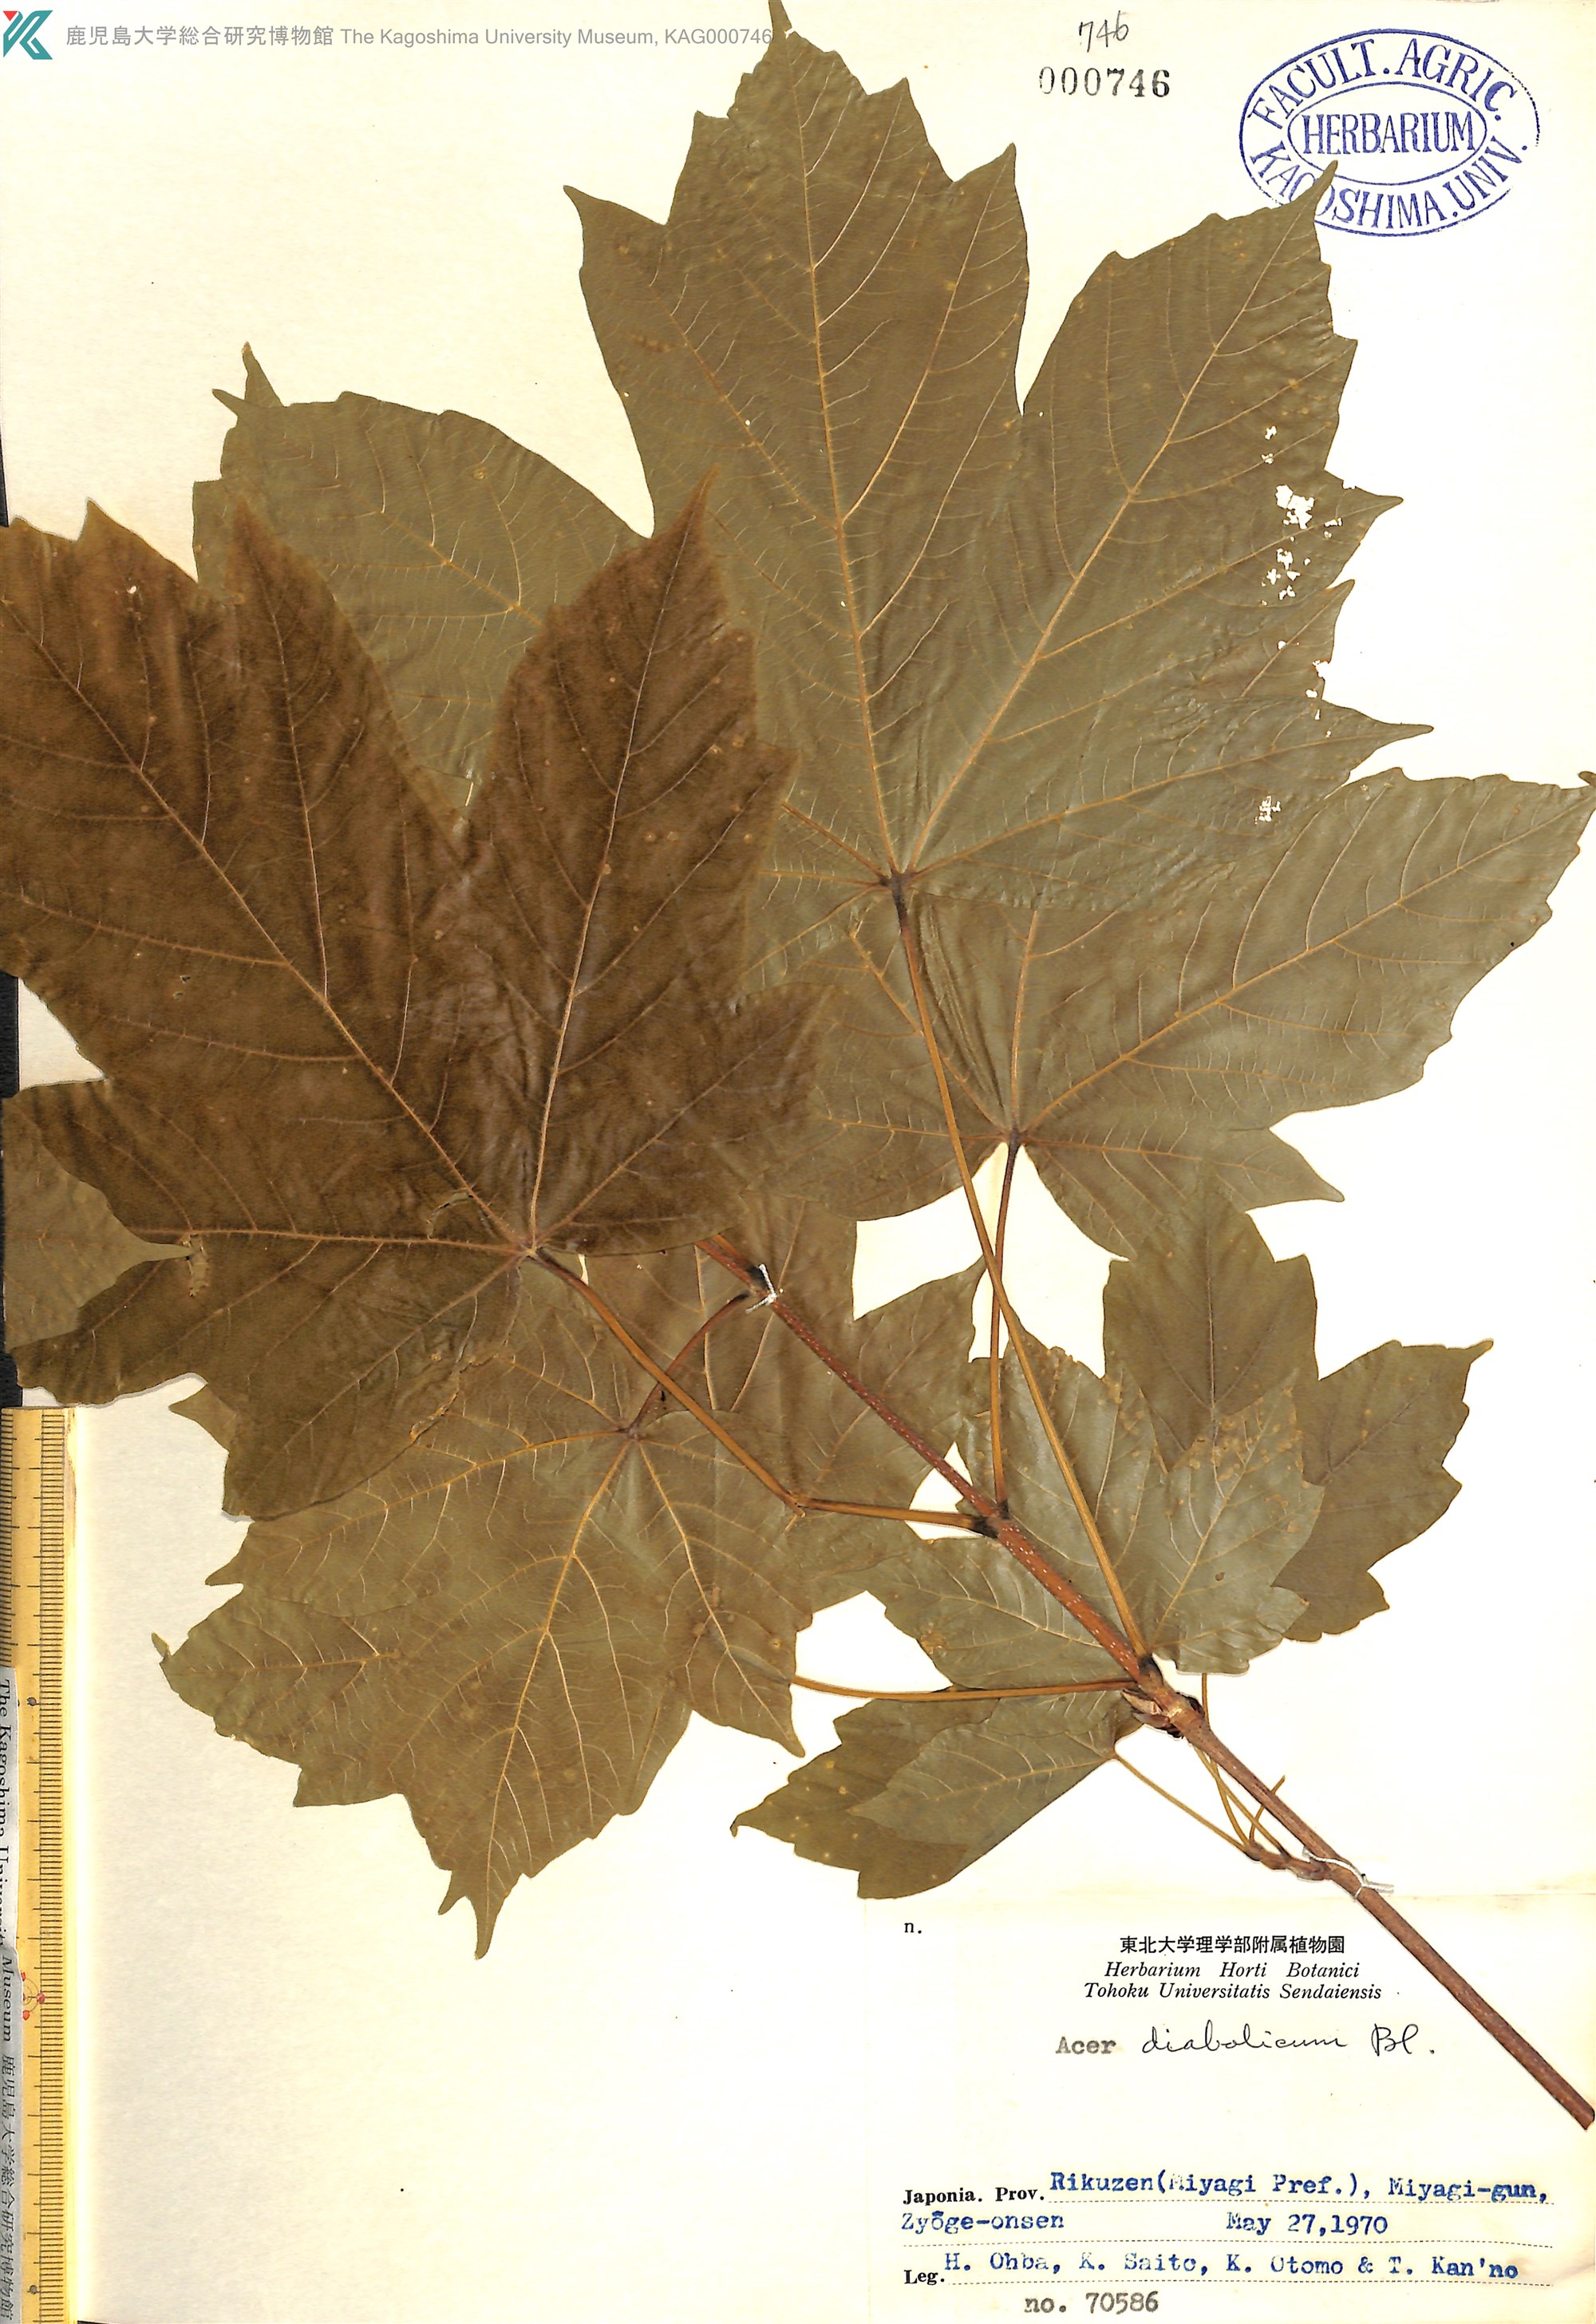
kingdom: Plantae
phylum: Tracheophyta
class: Magnoliopsida
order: Sapindales
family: Sapindaceae
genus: Acer
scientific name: Acer diabolicum
